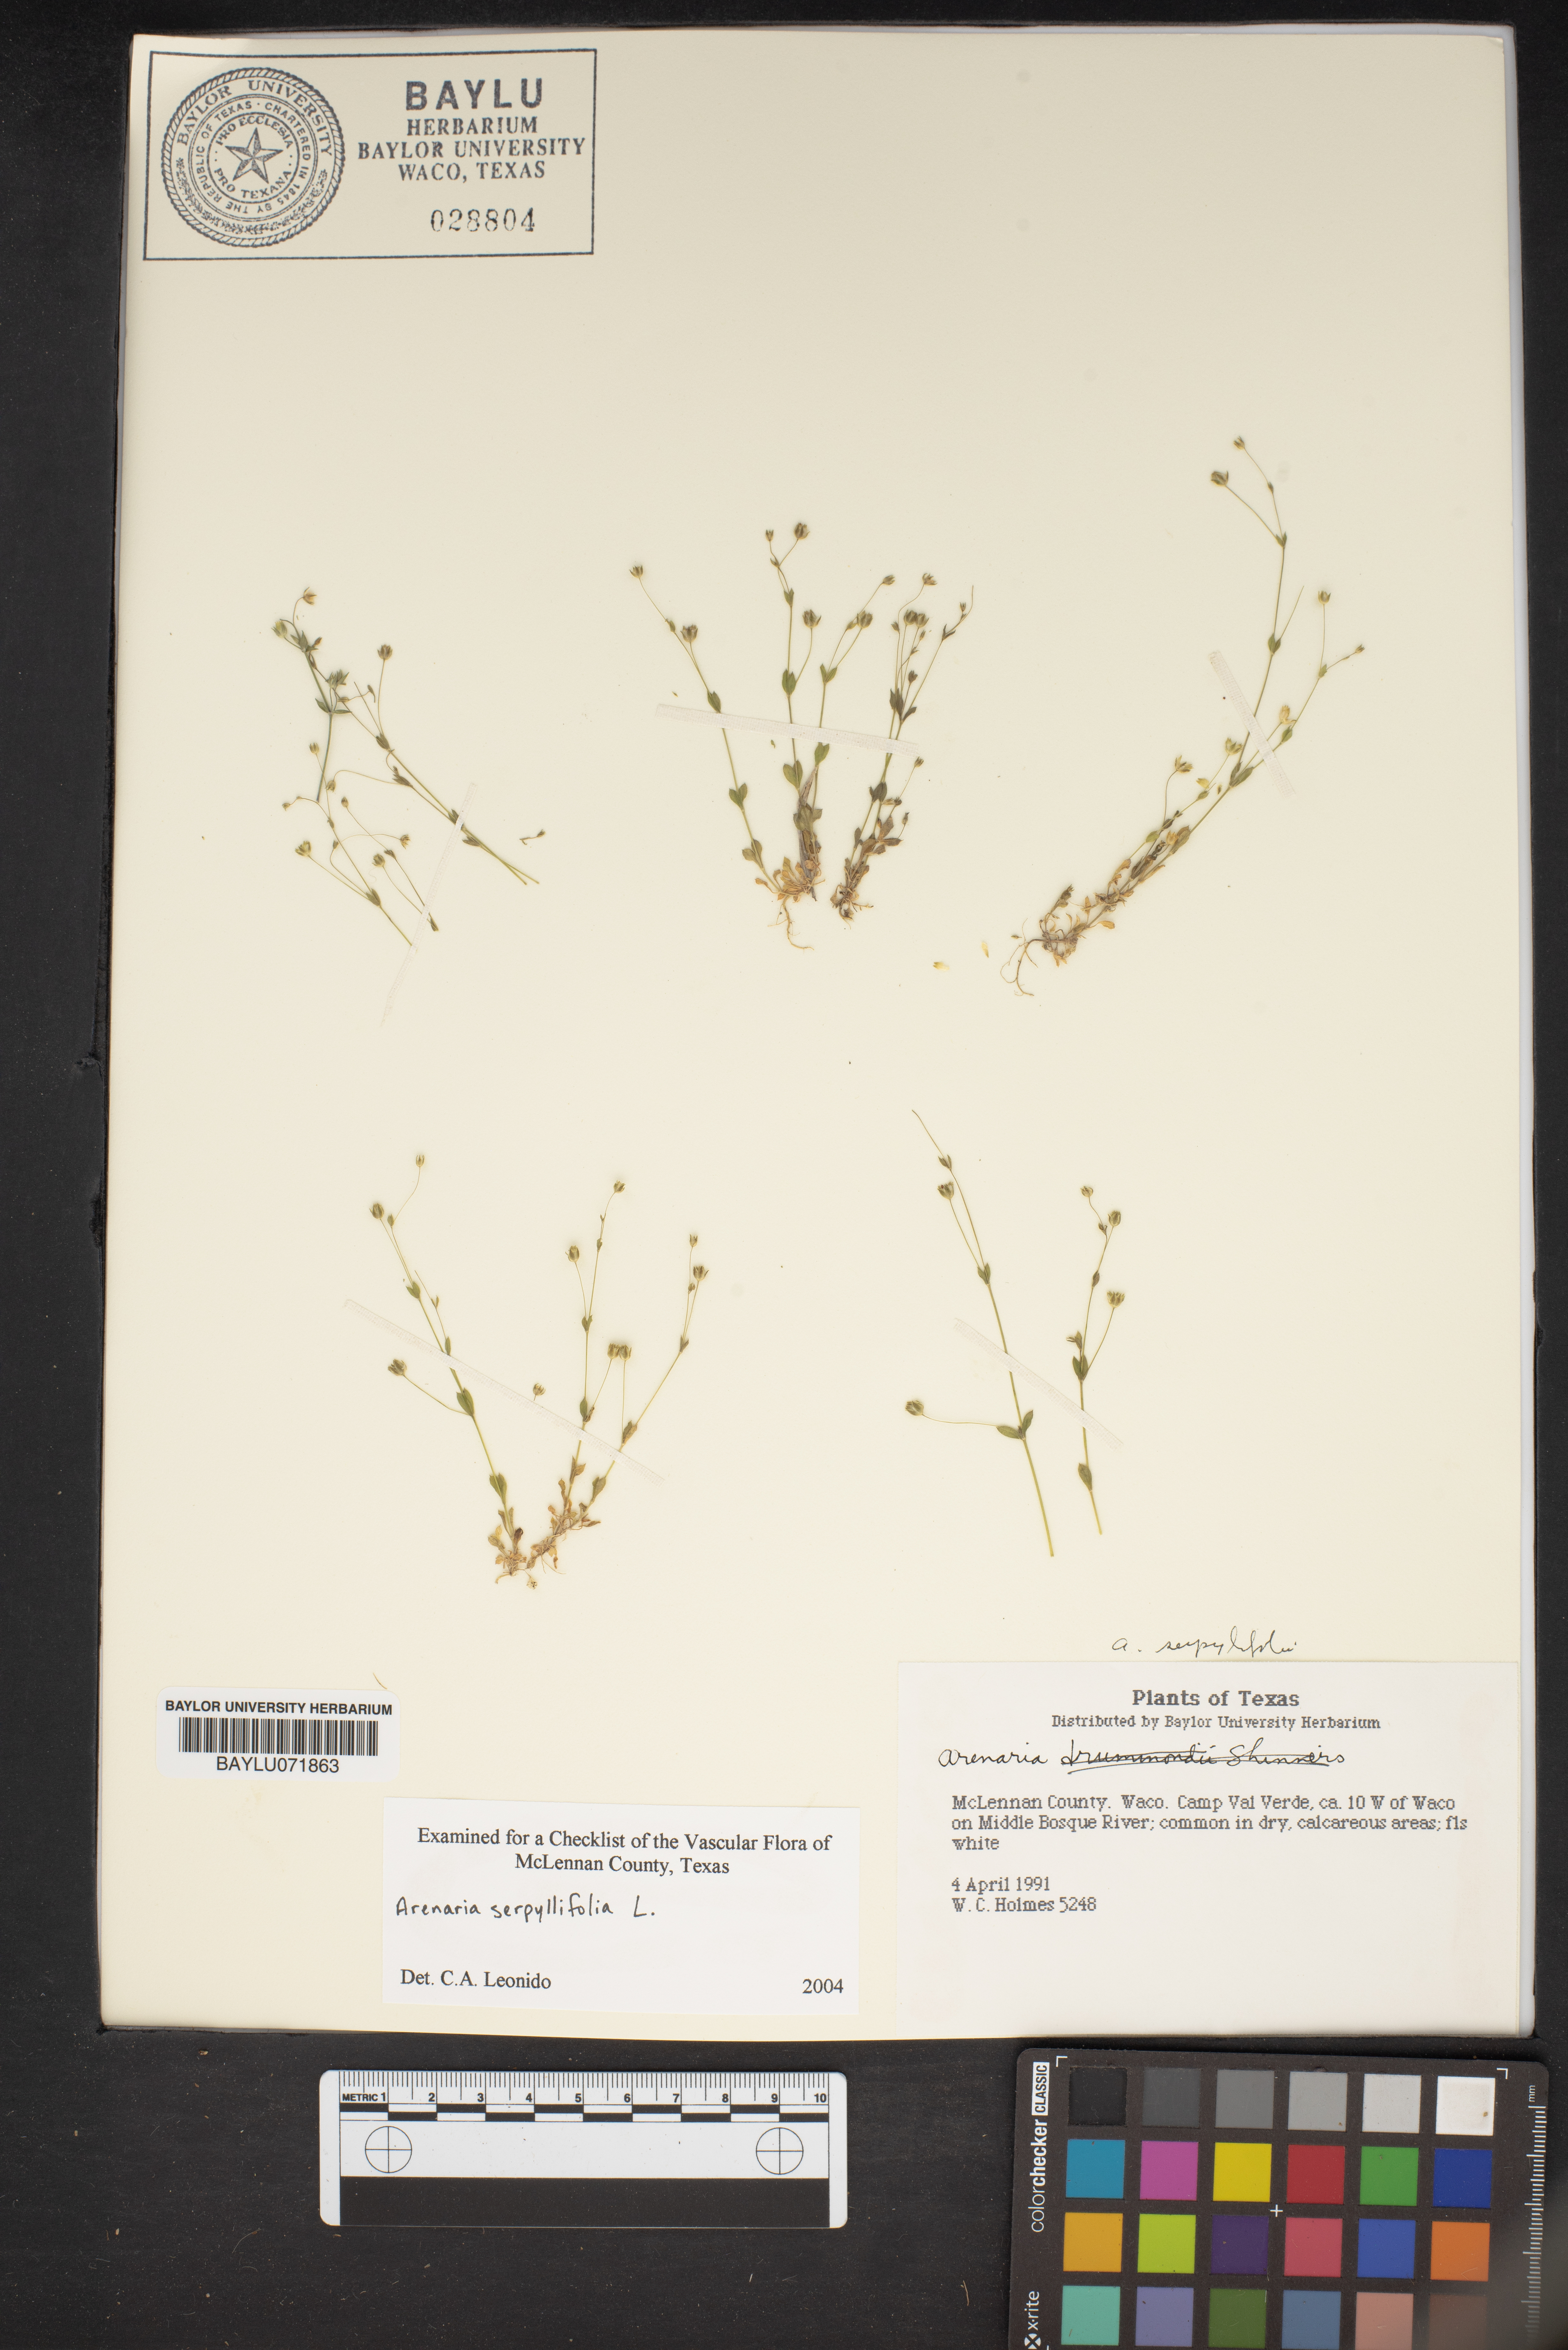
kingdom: Plantae
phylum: Tracheophyta
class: Magnoliopsida
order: Caryophyllales
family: Caryophyllaceae
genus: Arenaria
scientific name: Arenaria serpyllifolia
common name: Thyme-leaved sandwort
